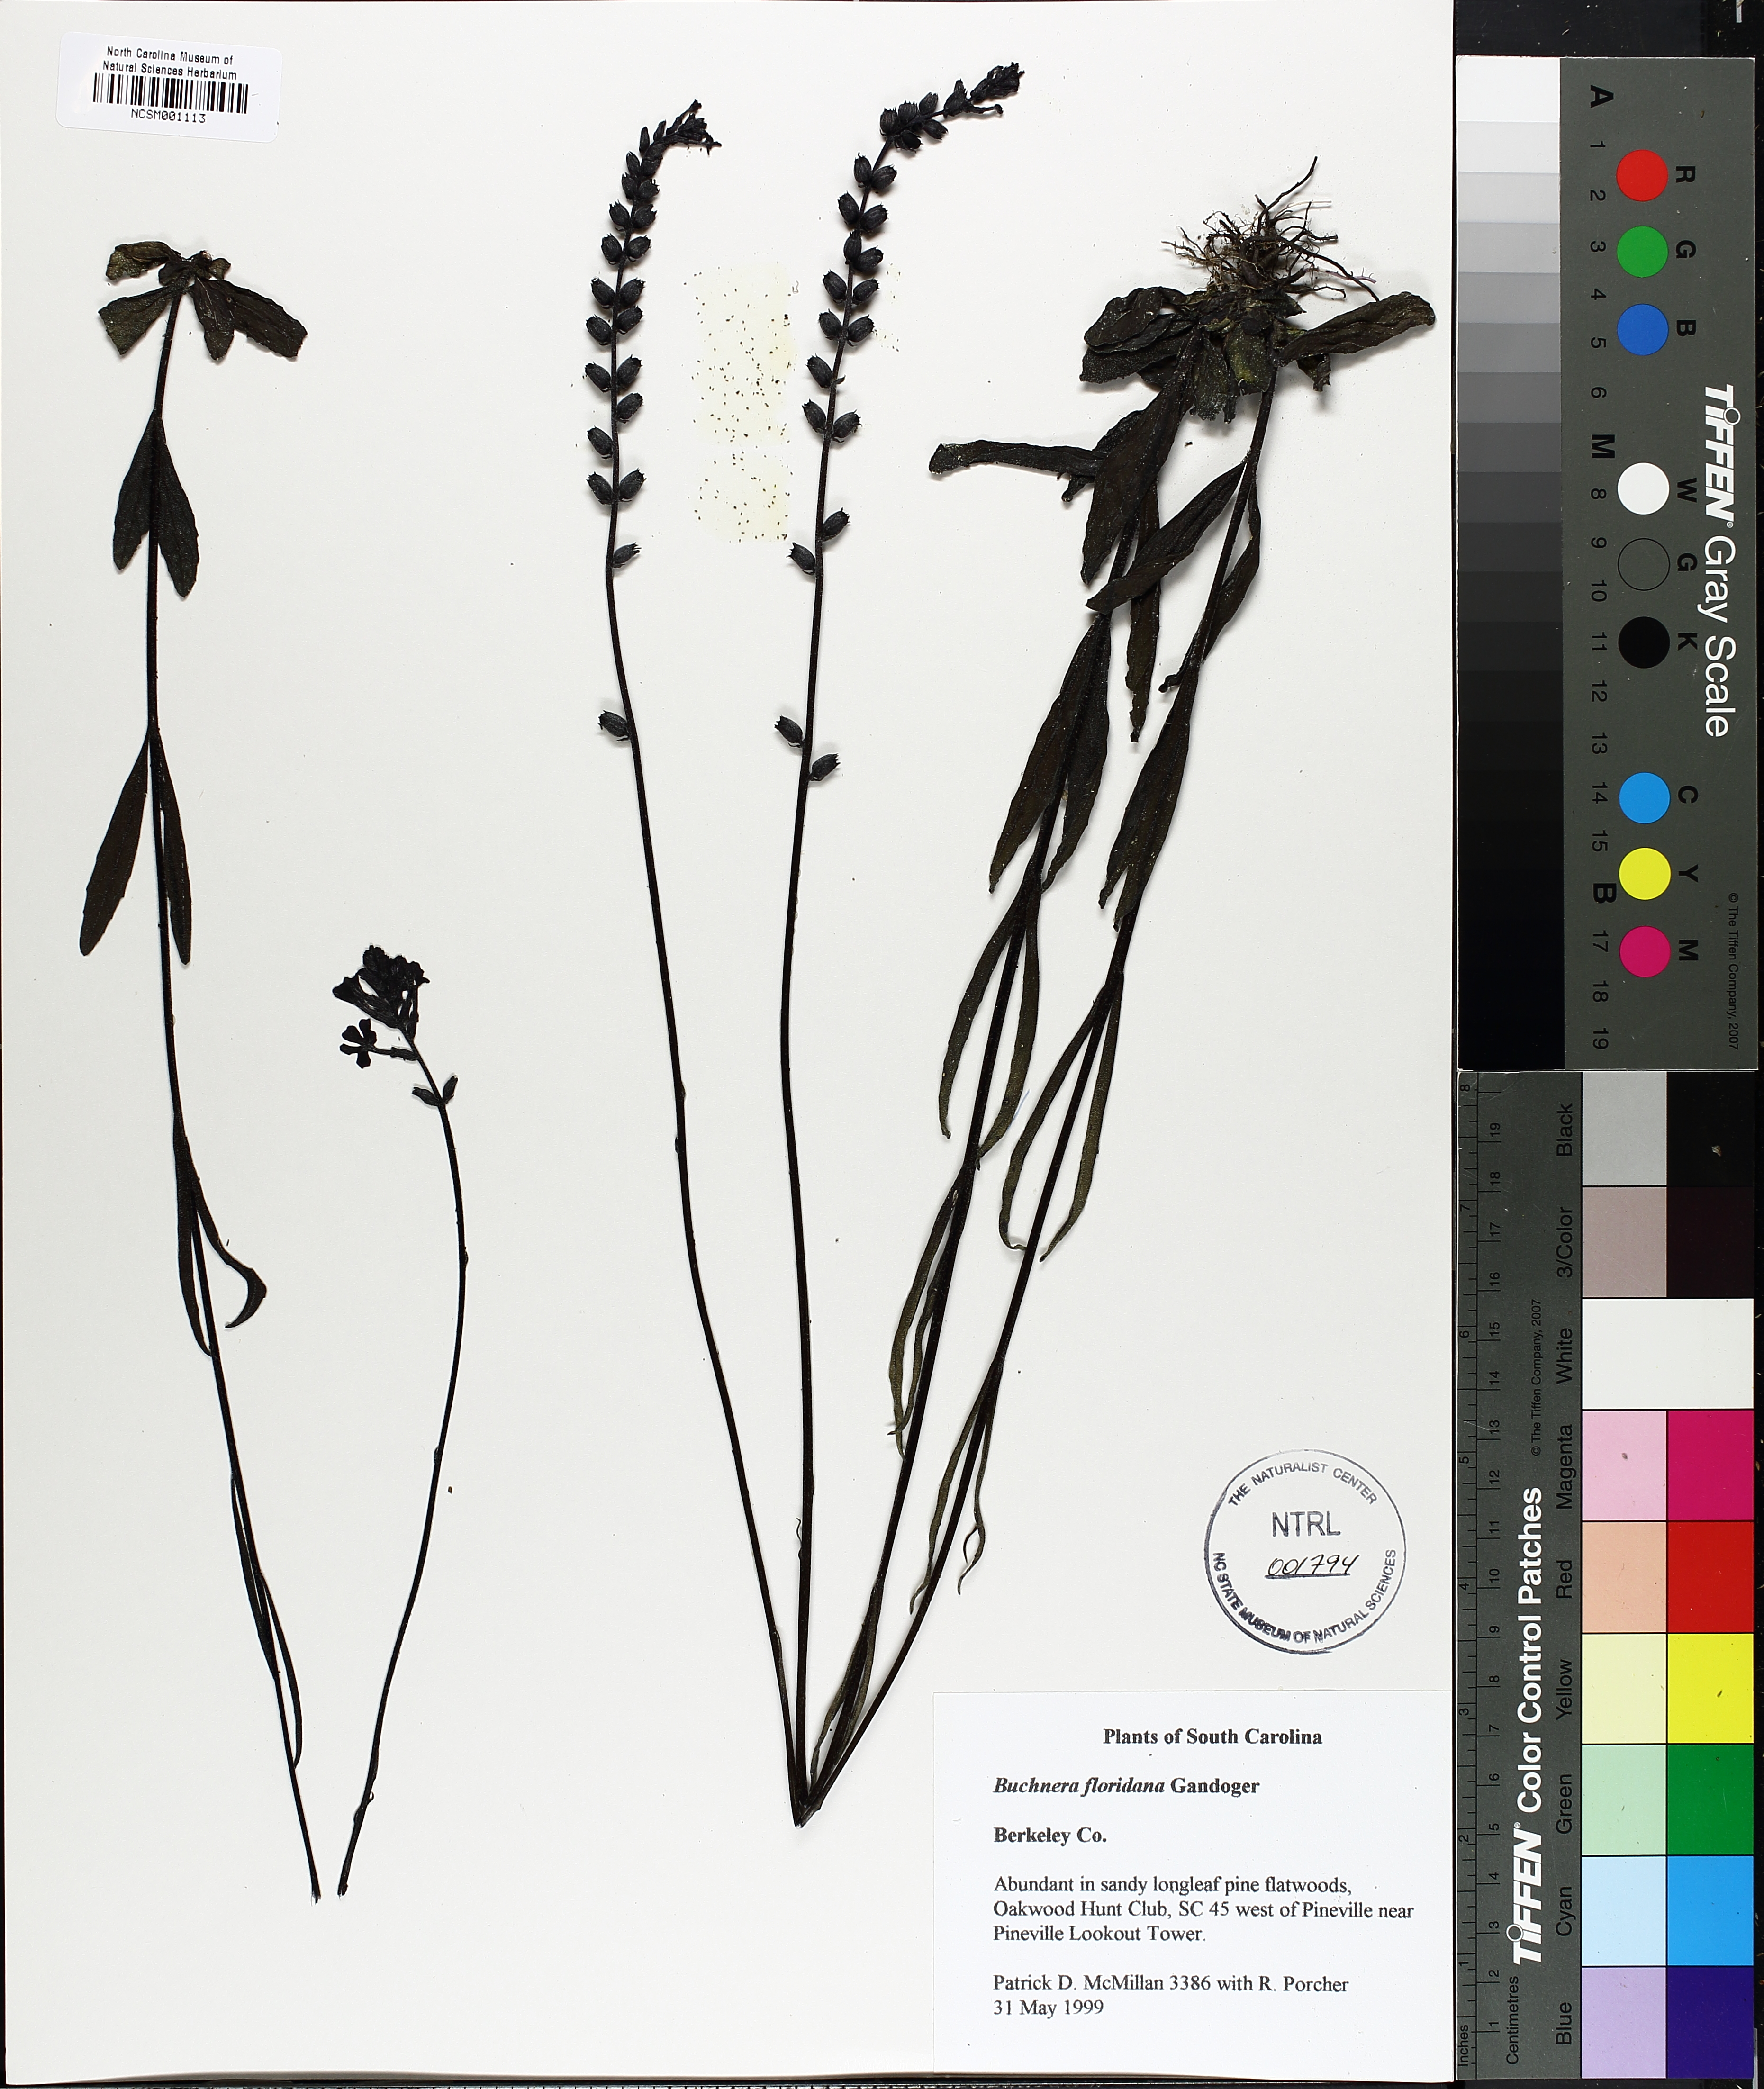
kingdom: Plantae
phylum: Tracheophyta
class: Magnoliopsida
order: Lamiales
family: Orobanchaceae
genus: Buchnera
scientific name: Buchnera americana
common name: American bluehearts
